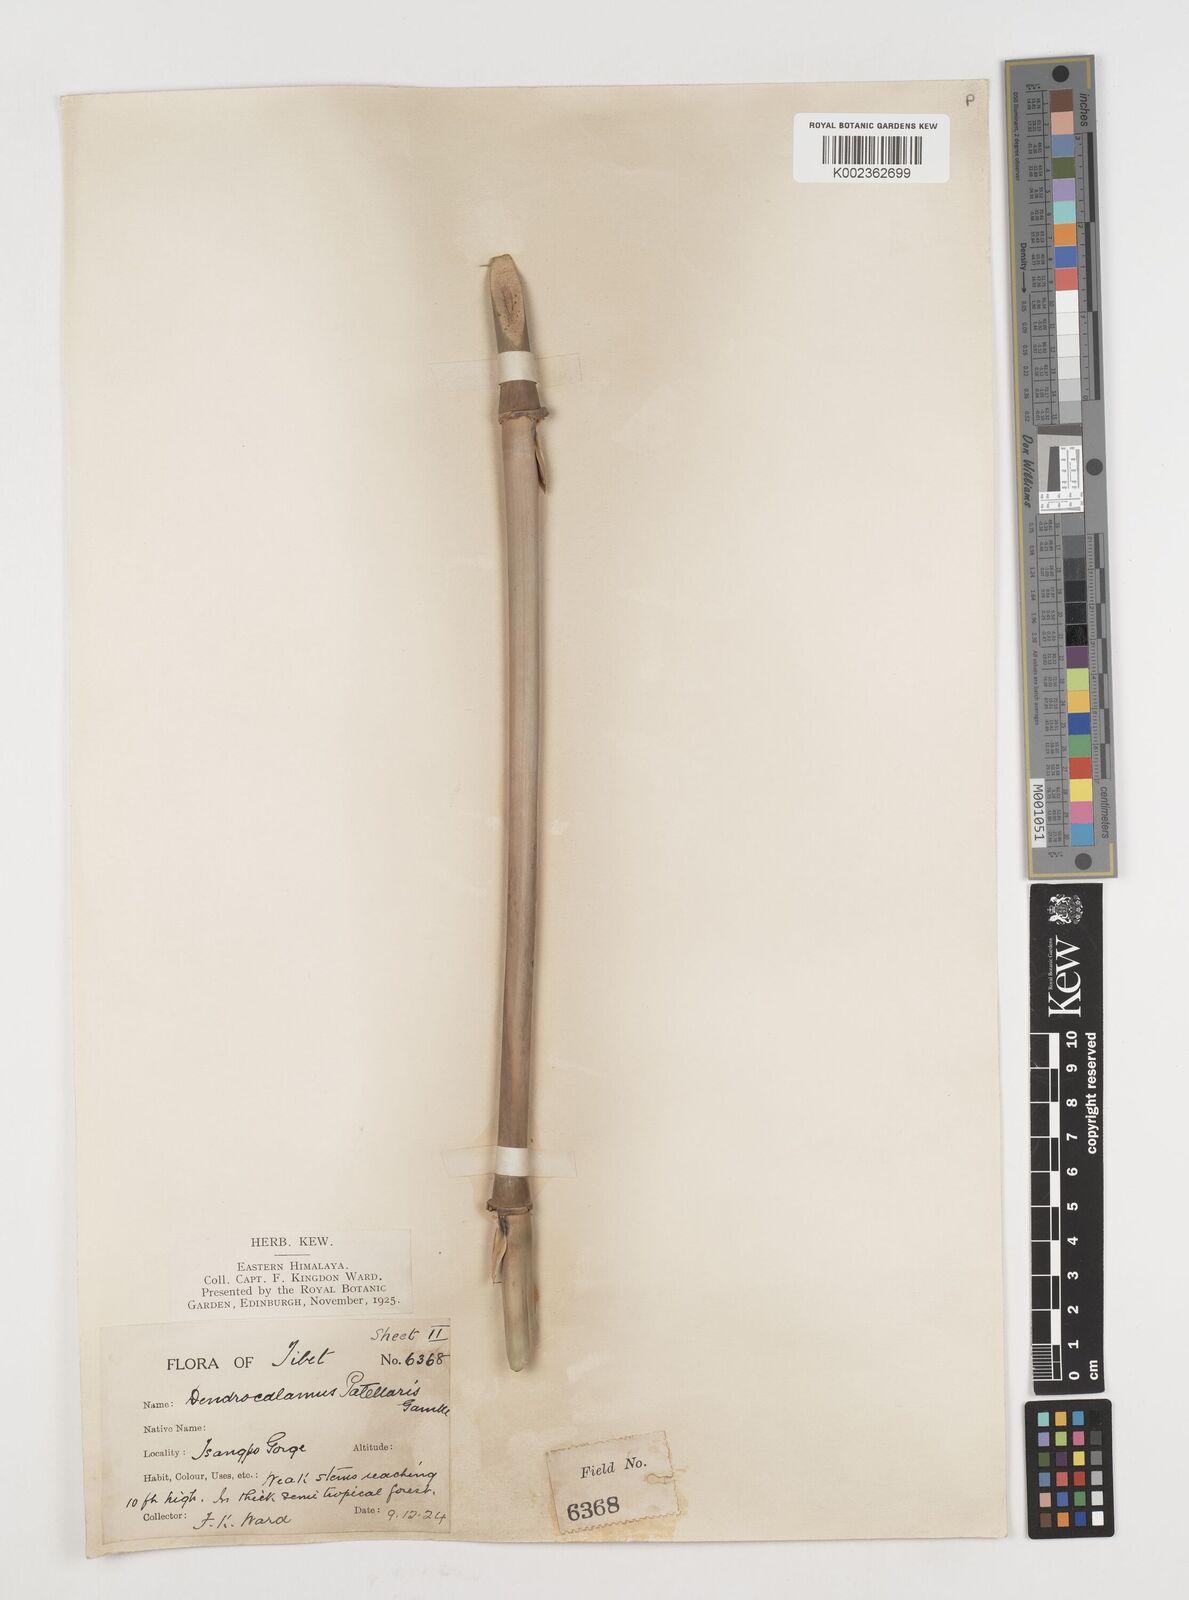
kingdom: Plantae
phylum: Tracheophyta
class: Liliopsida
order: Poales
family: Poaceae
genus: Ampelocalamus
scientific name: Ampelocalamus patellaris
